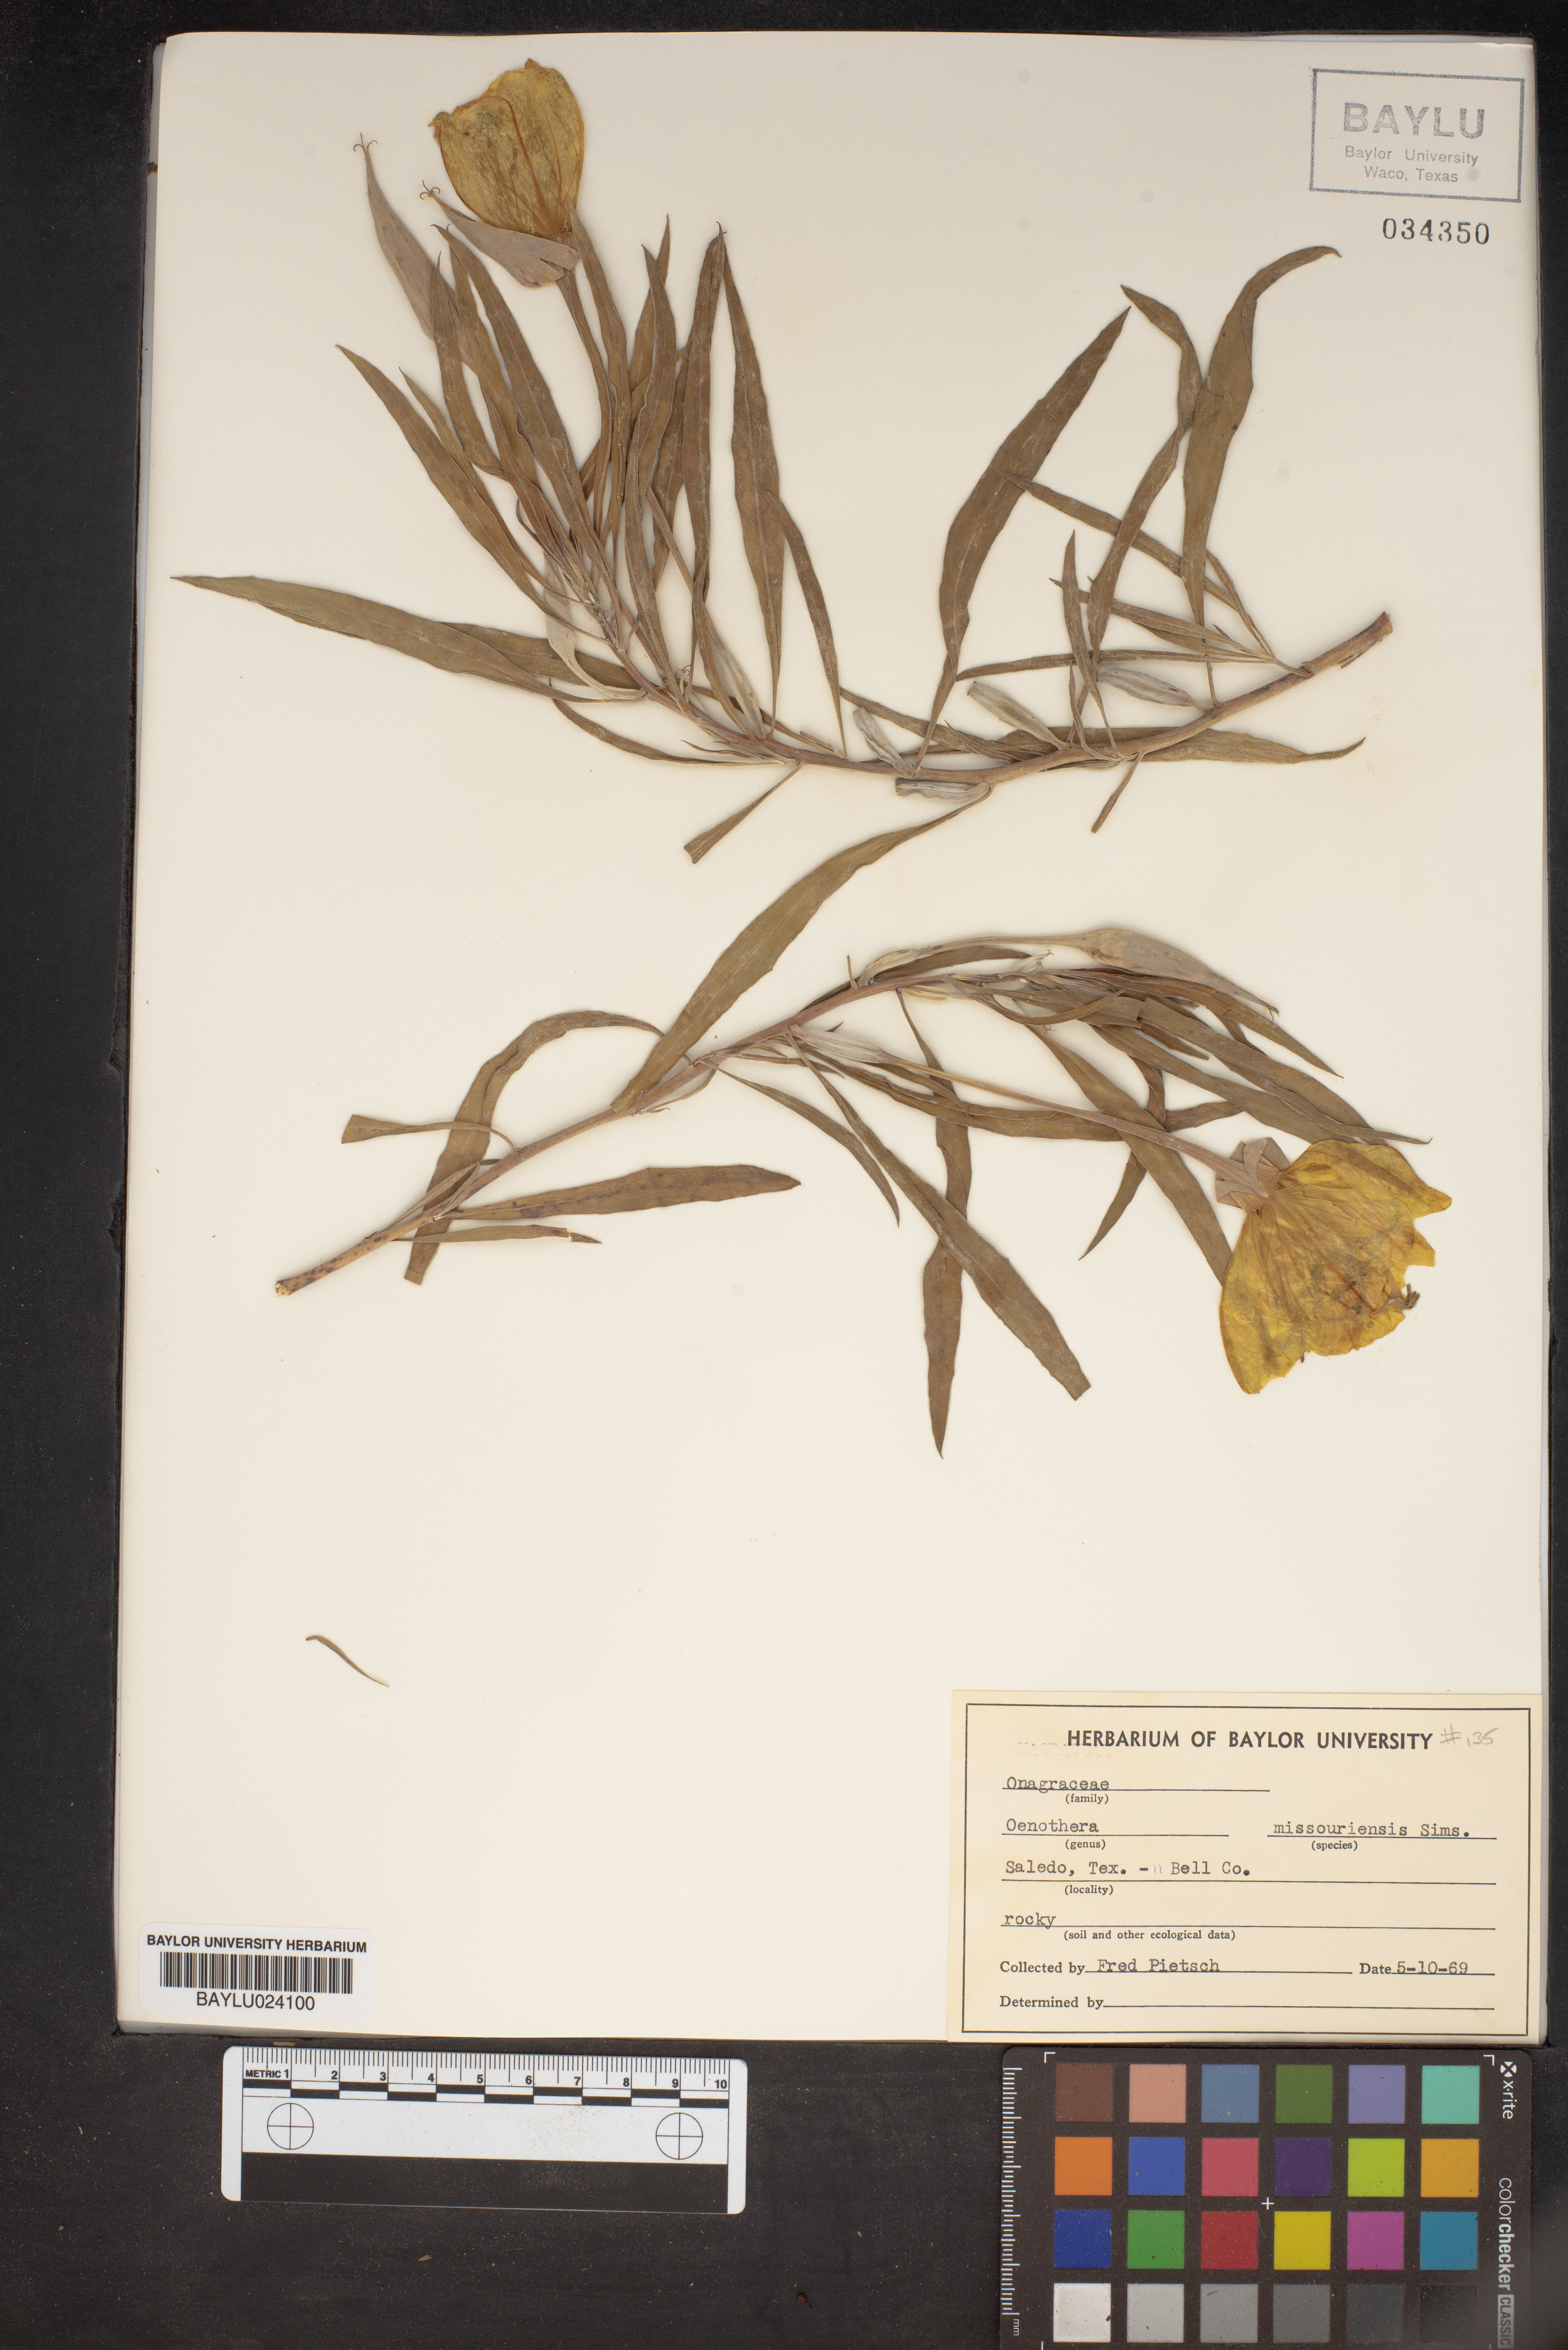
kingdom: Plantae
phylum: Tracheophyta
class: Magnoliopsida
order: Myrtales
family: Onagraceae
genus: Oenothera
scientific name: Oenothera macrocarpa
